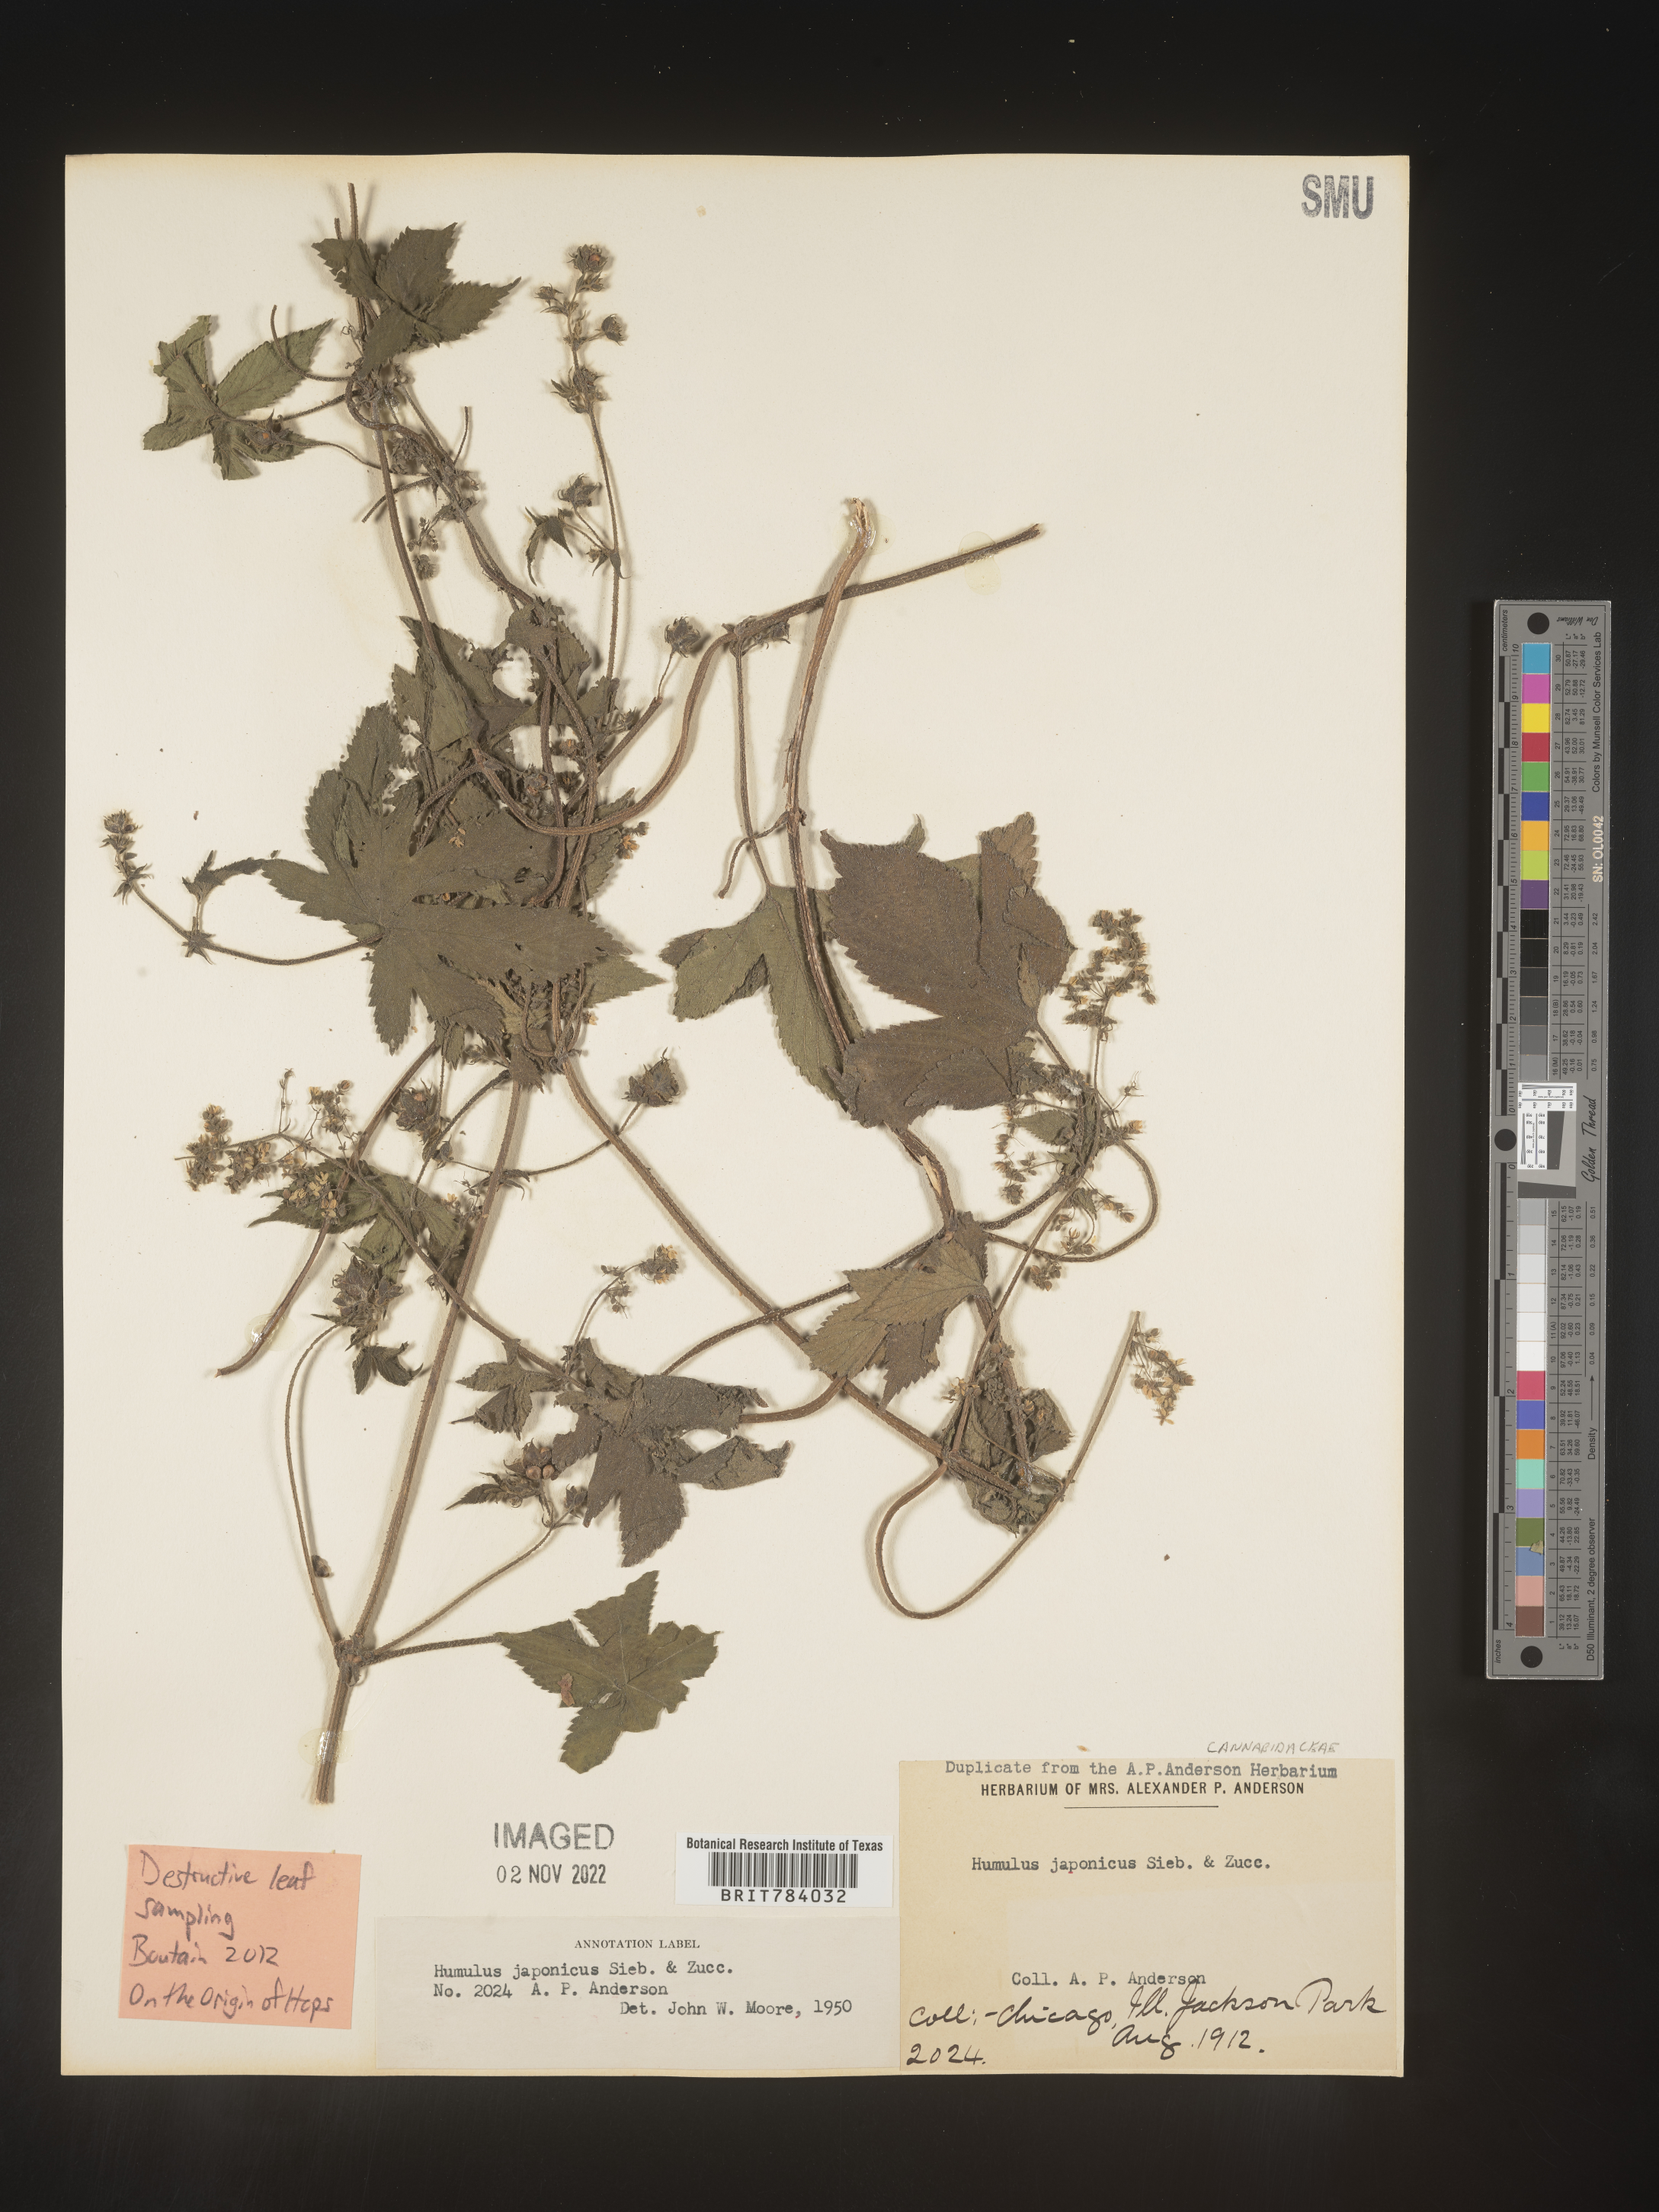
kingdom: Plantae
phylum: Tracheophyta
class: Magnoliopsida
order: Rosales
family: Cannabaceae
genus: Humulus
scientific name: Humulus scandens
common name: Japanese hop
